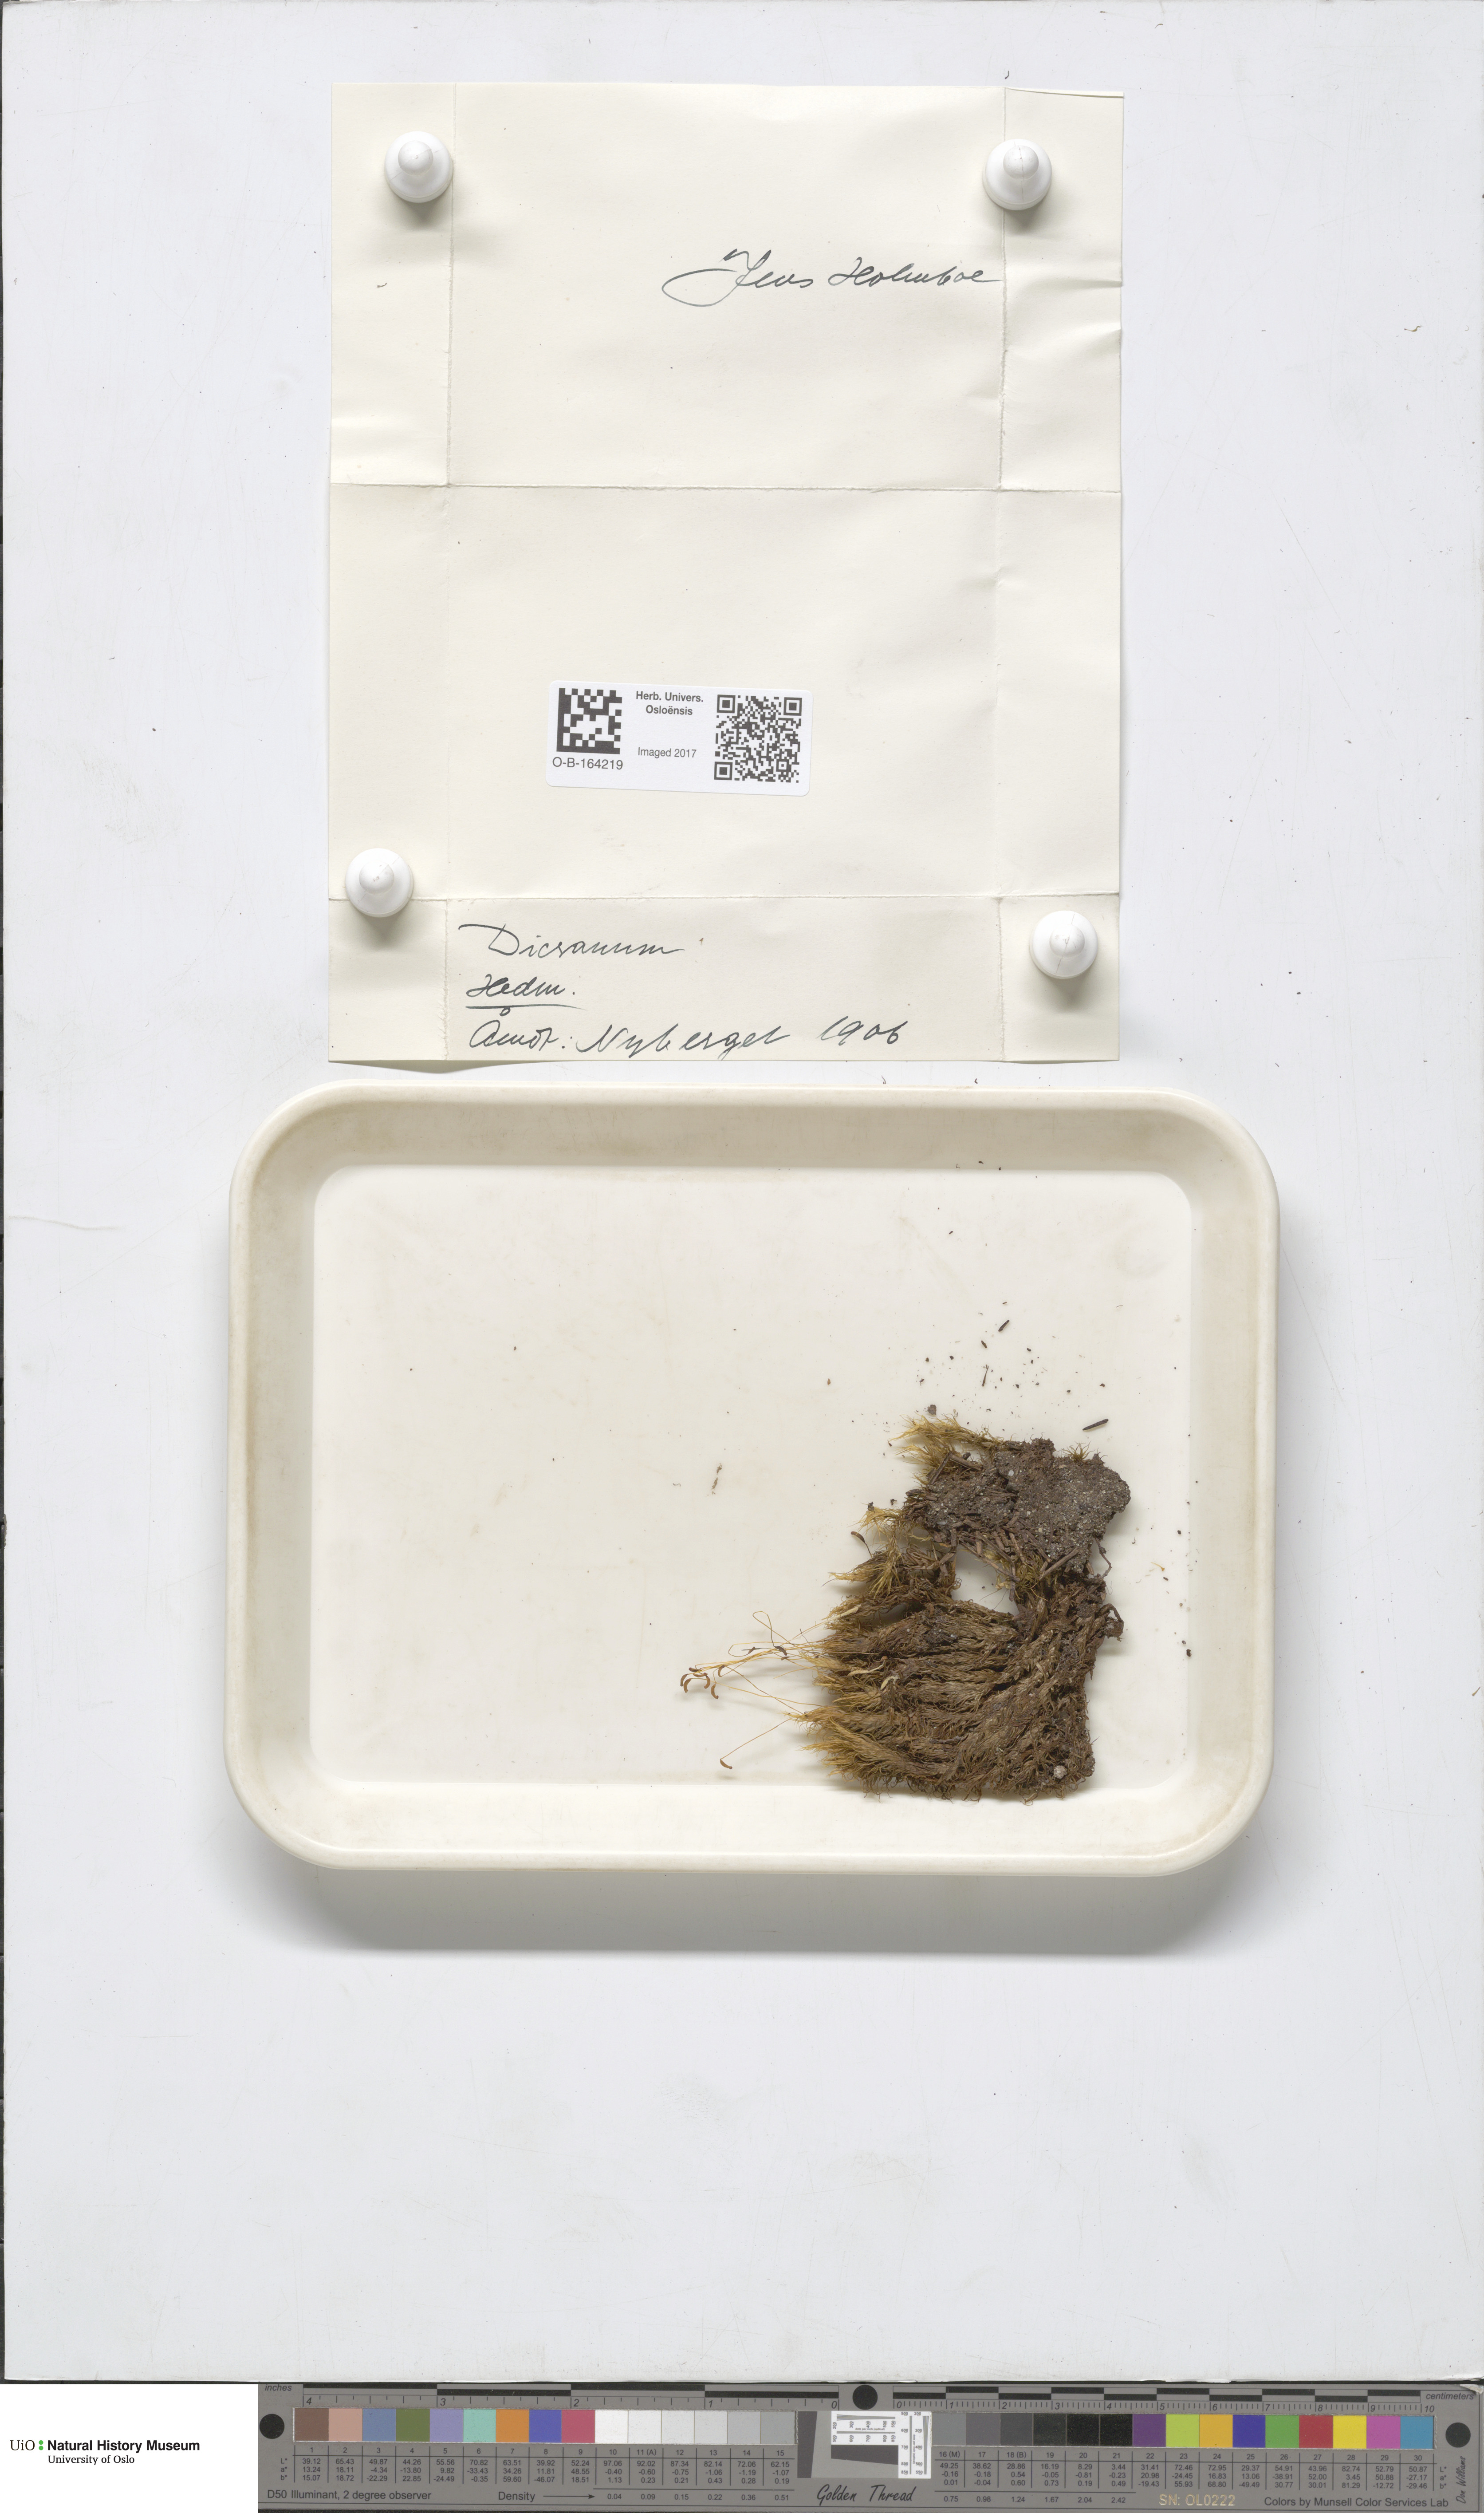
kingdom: Plantae
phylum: Bryophyta
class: Bryopsida
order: Dicranales
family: Dicranaceae
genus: Dicranum
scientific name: Dicranum
